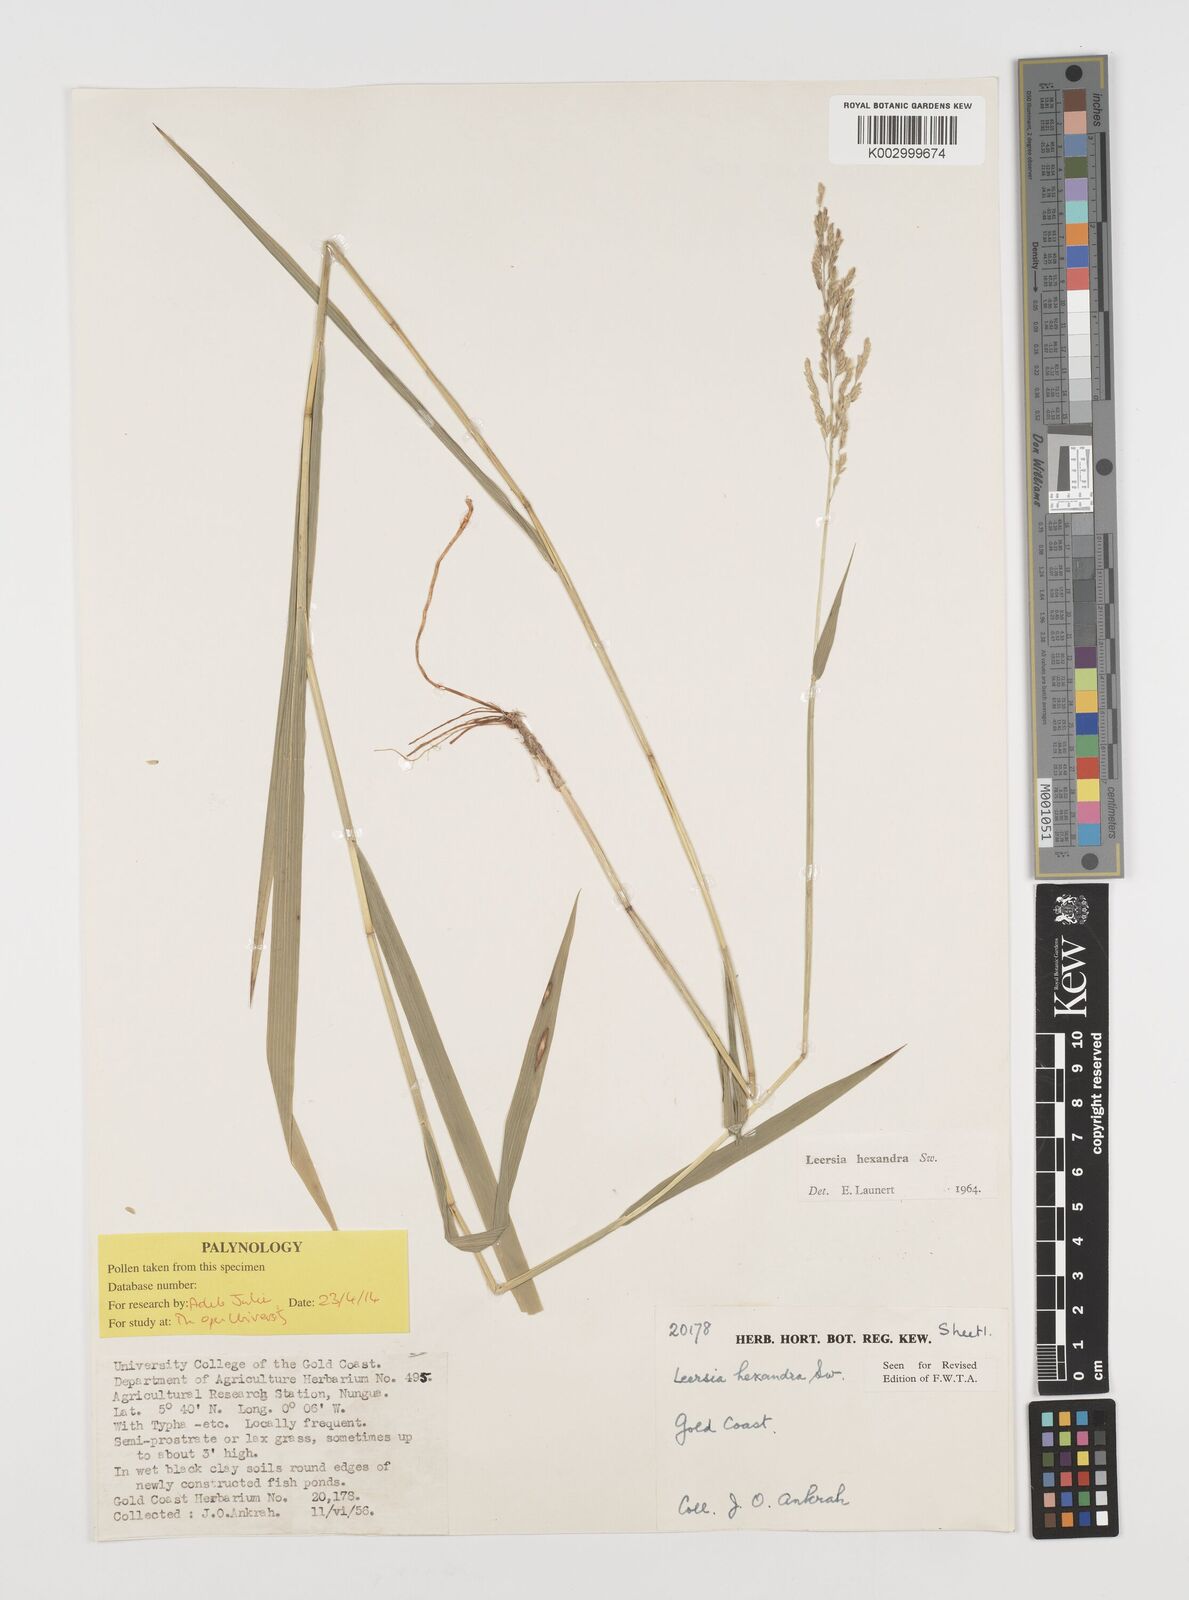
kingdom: Plantae
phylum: Tracheophyta
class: Liliopsida
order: Poales
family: Poaceae
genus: Leersia
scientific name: Leersia hexandra
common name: Southern cut grass
